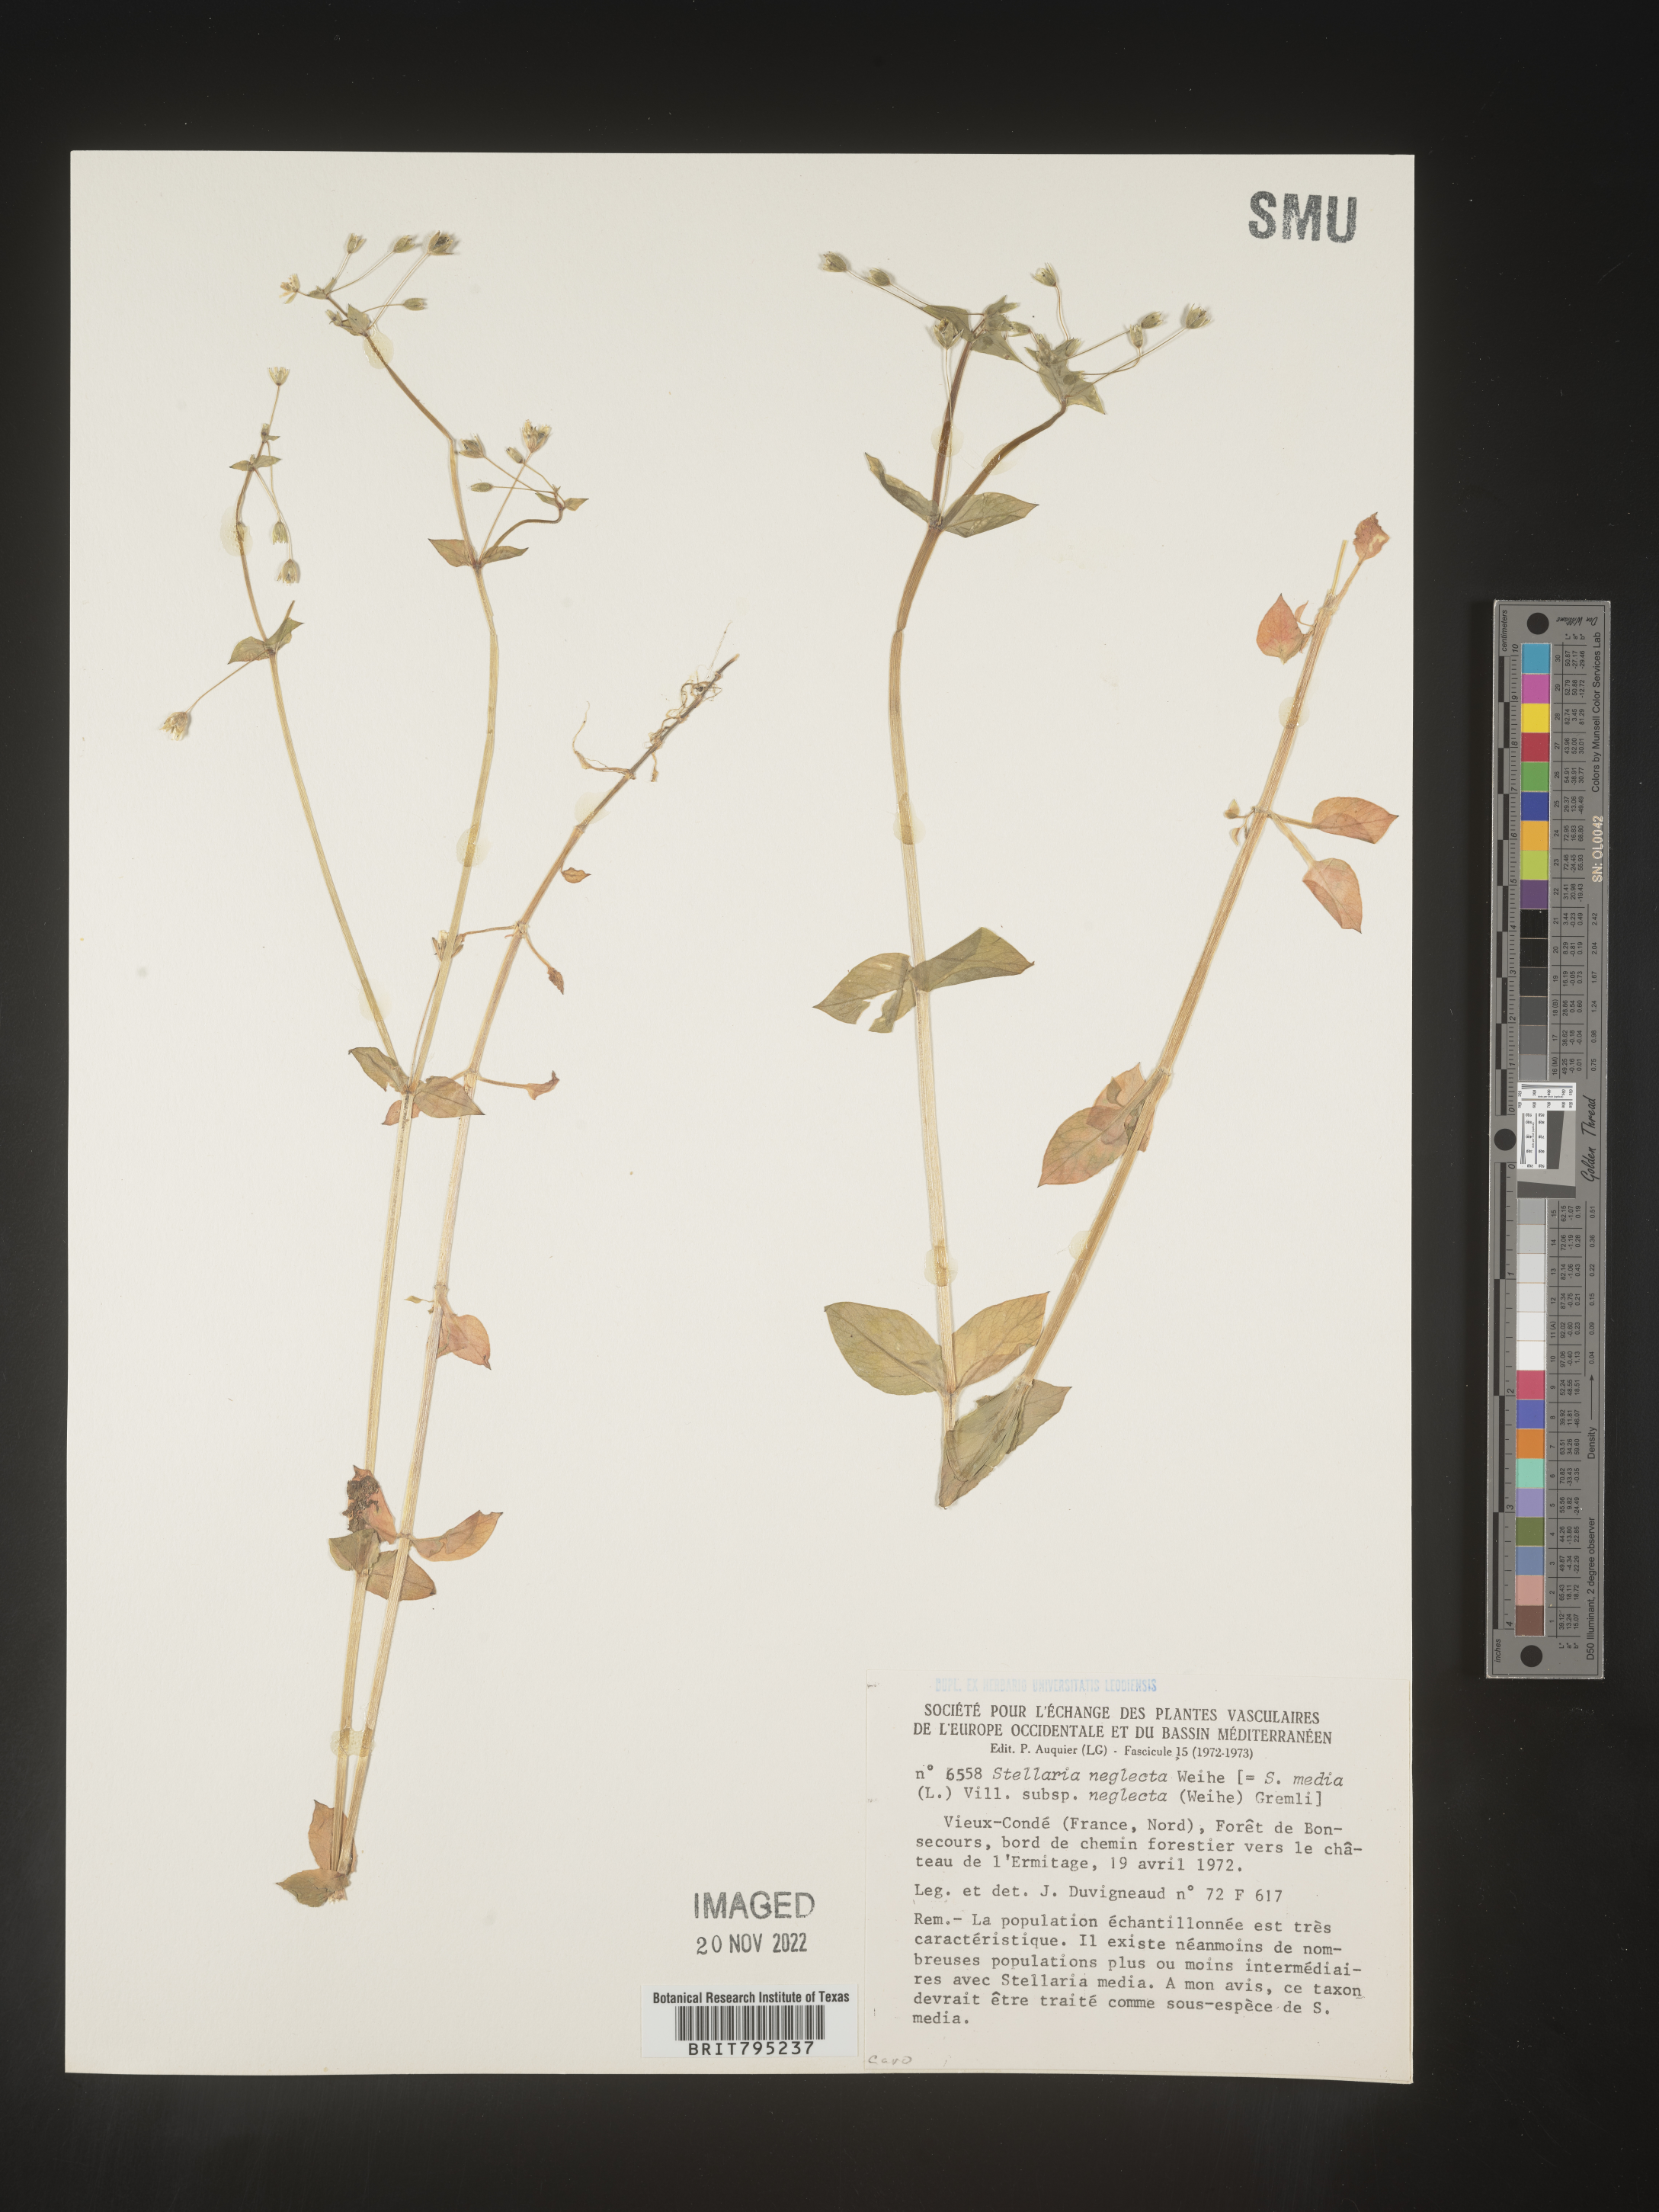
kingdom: Plantae
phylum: Tracheophyta
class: Magnoliopsida
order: Caryophyllales
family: Caryophyllaceae
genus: Stellaria
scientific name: Stellaria
